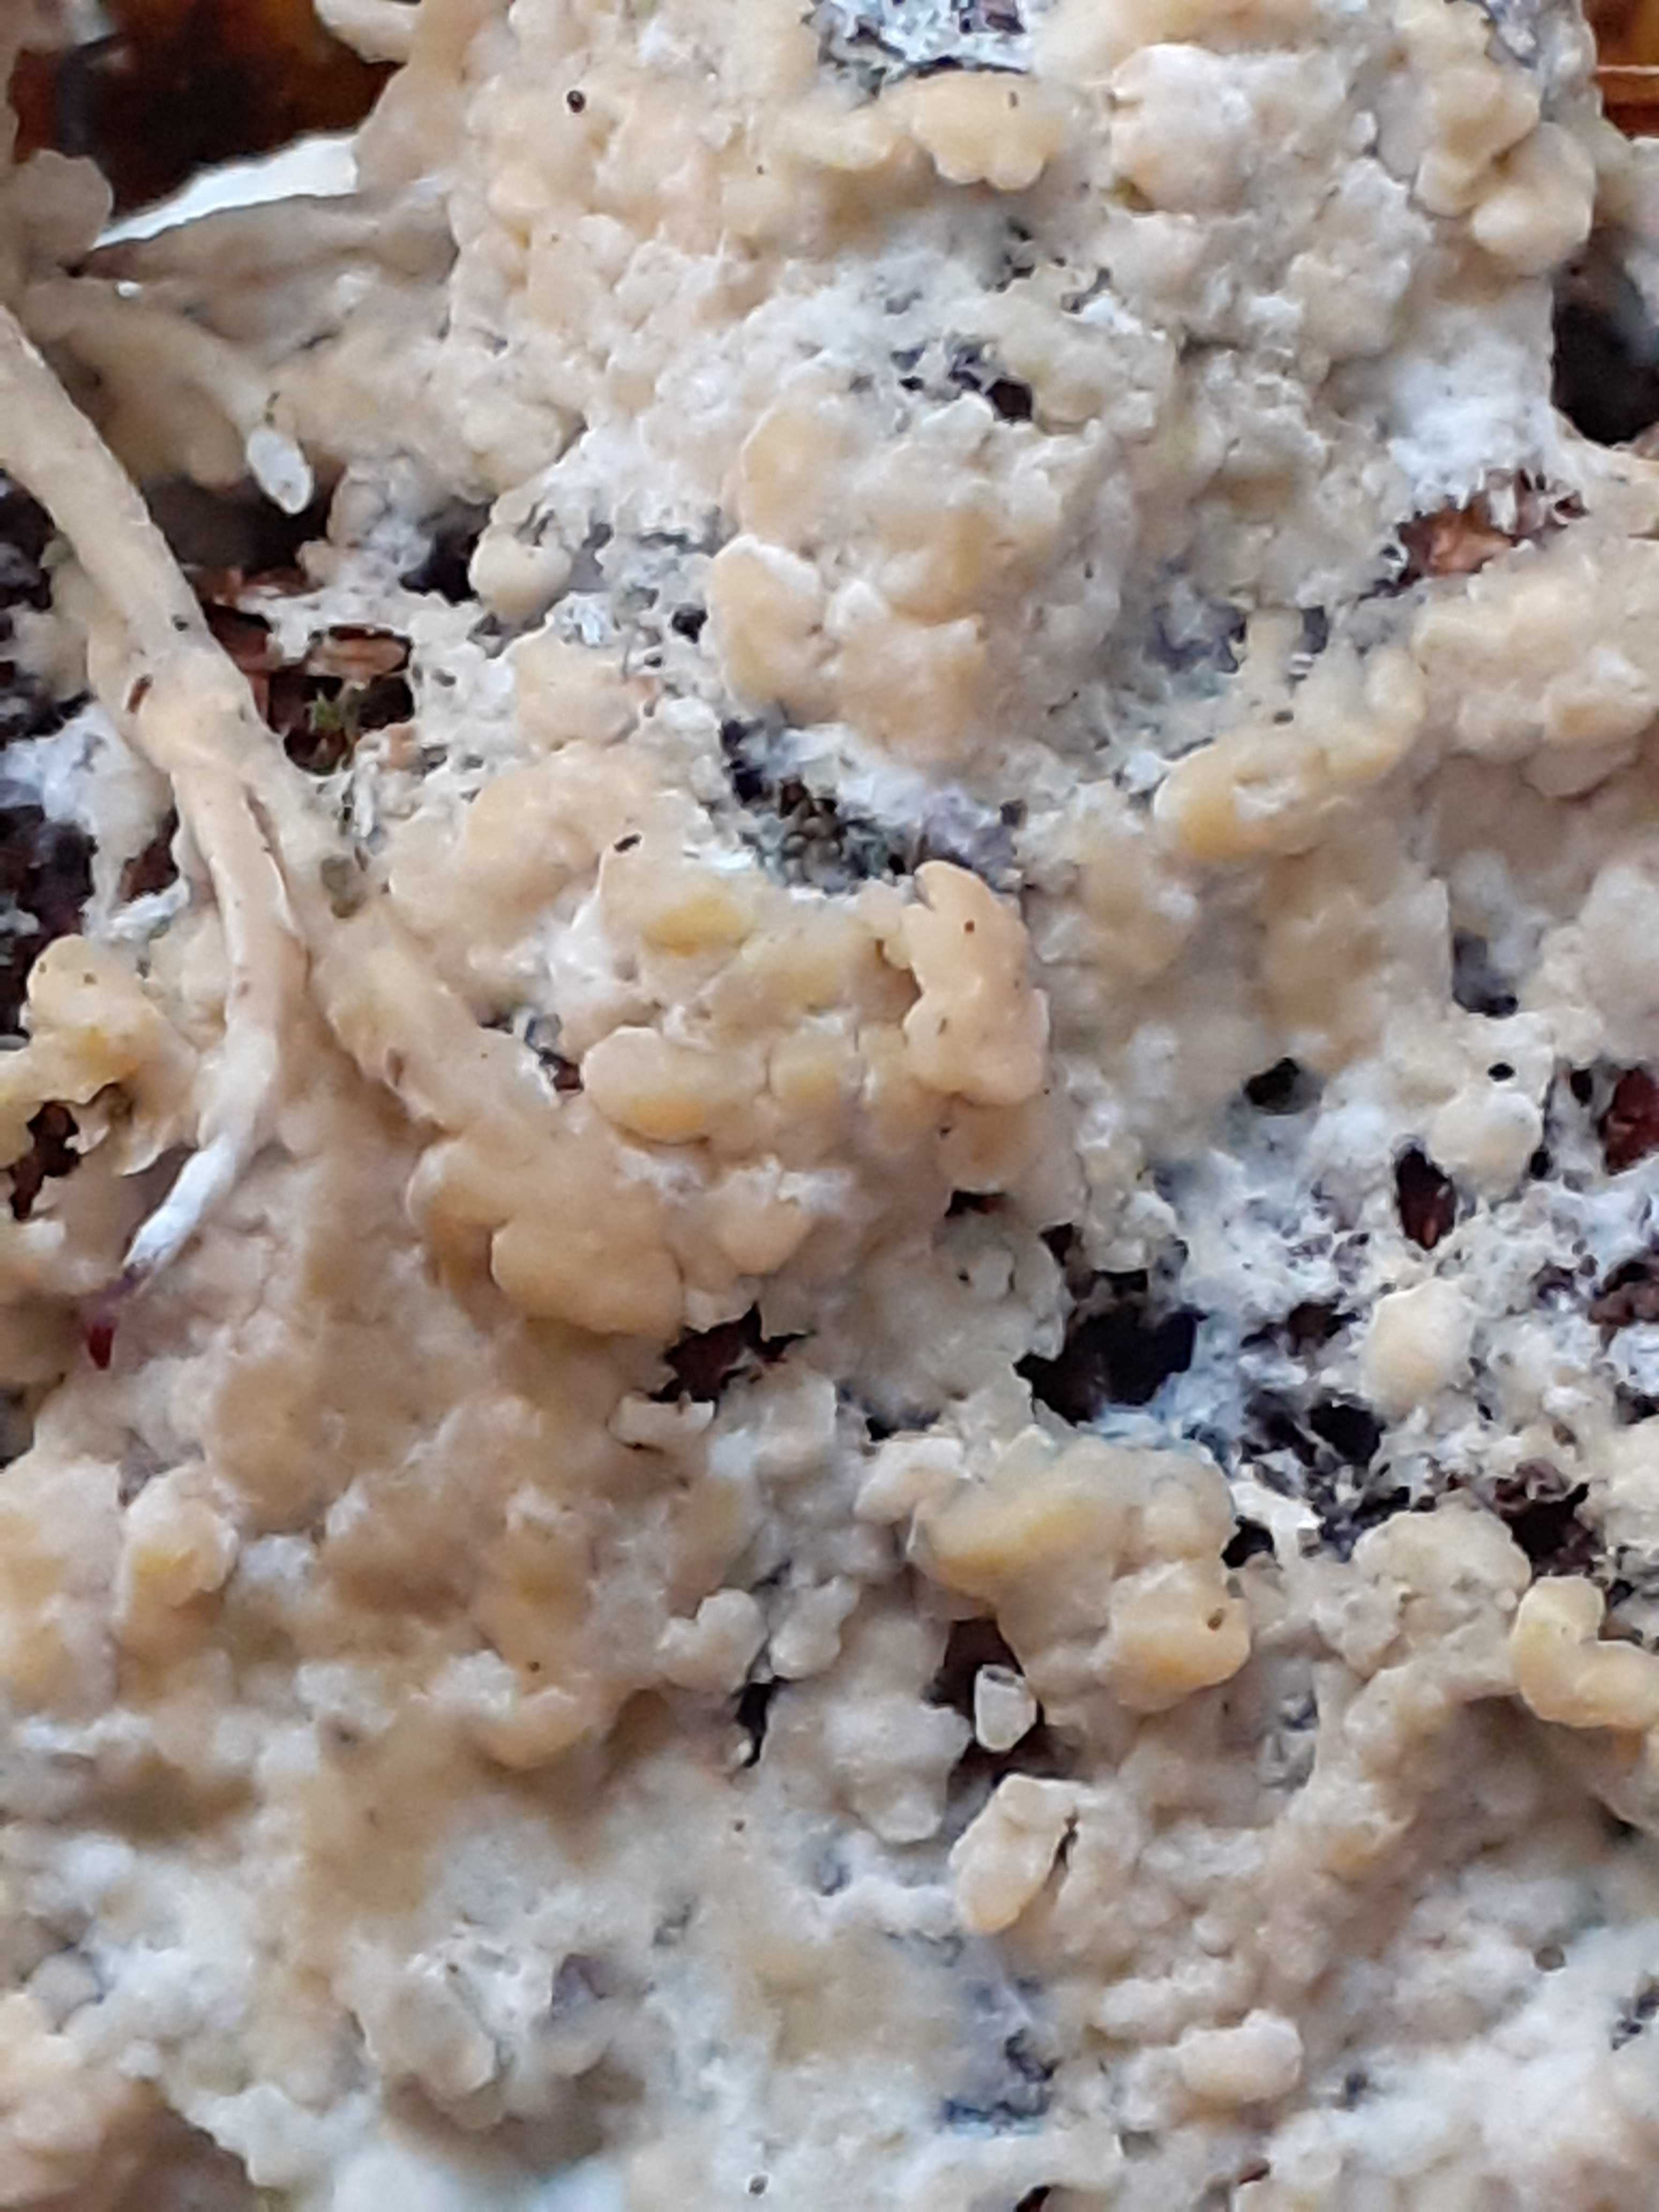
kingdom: Fungi
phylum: Basidiomycota
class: Agaricomycetes
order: Russulales
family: Peniophoraceae
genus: Gloiothele
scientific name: Gloiothele citrina
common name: citronskorpe
